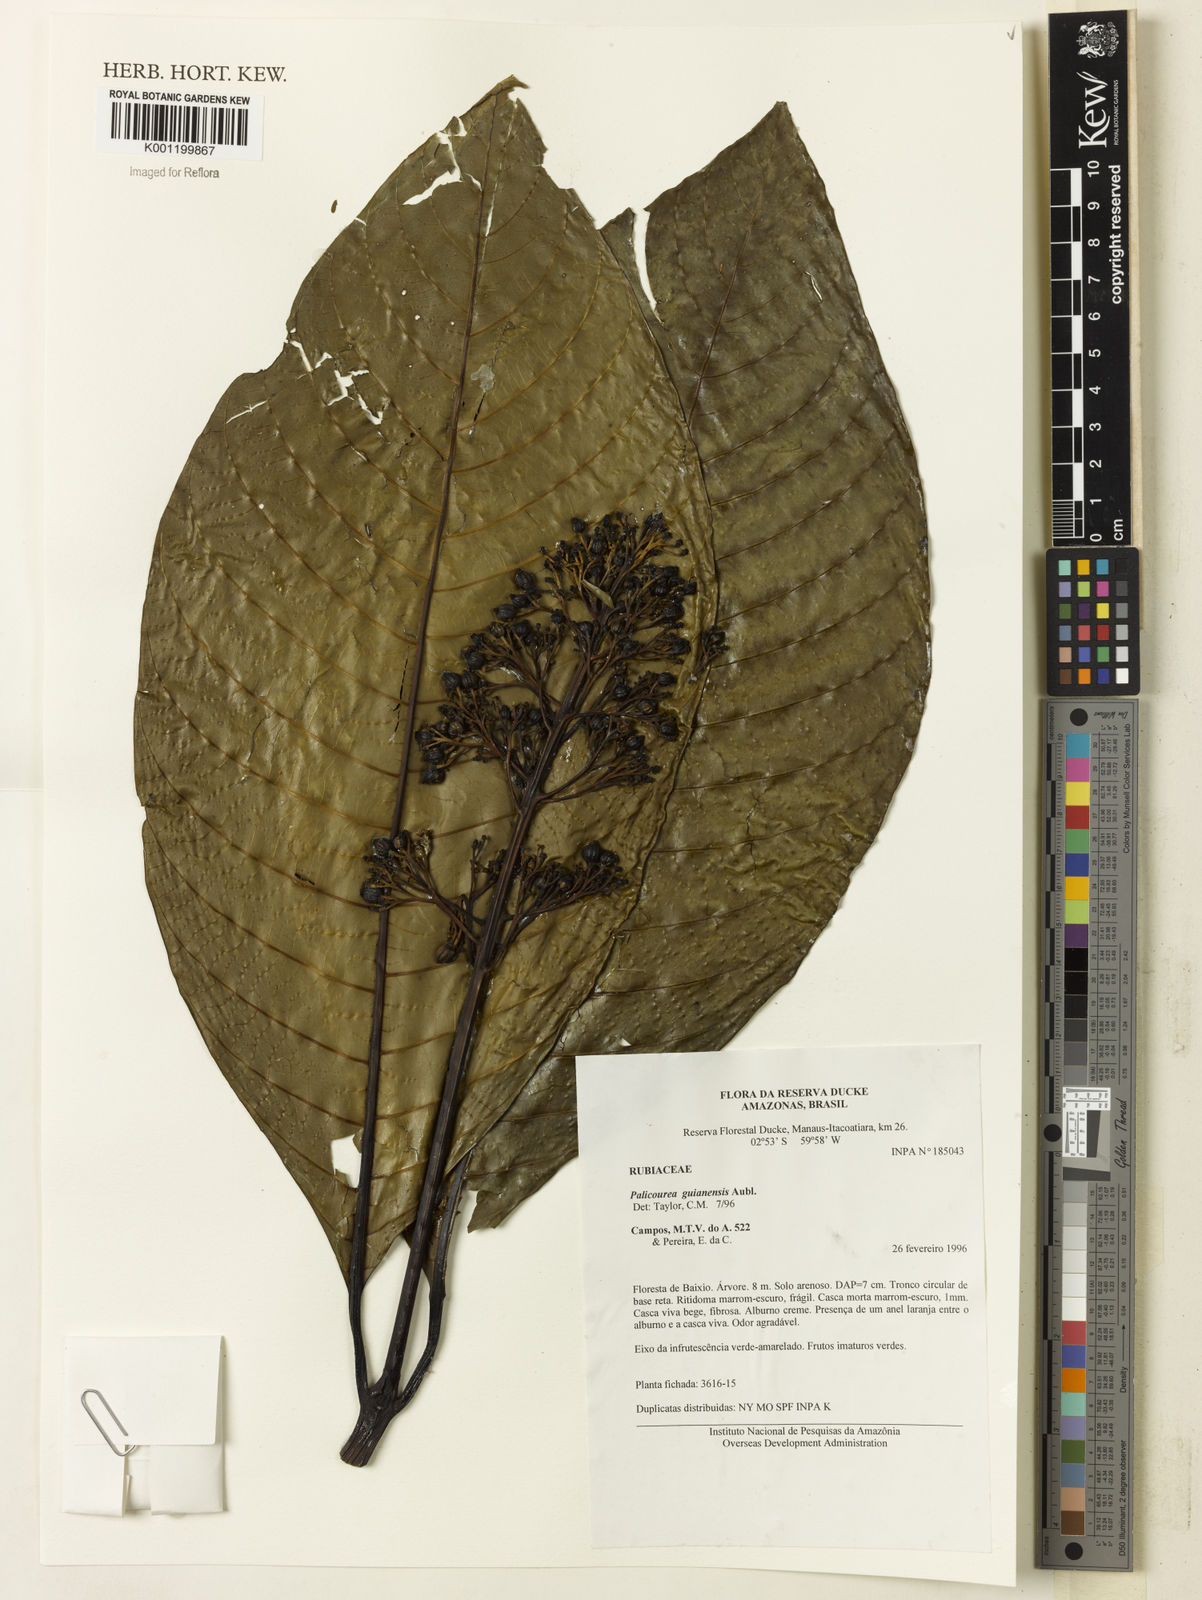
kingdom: Plantae
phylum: Tracheophyta
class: Magnoliopsida
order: Gentianales
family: Rubiaceae
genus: Palicourea
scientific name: Palicourea guianensis
